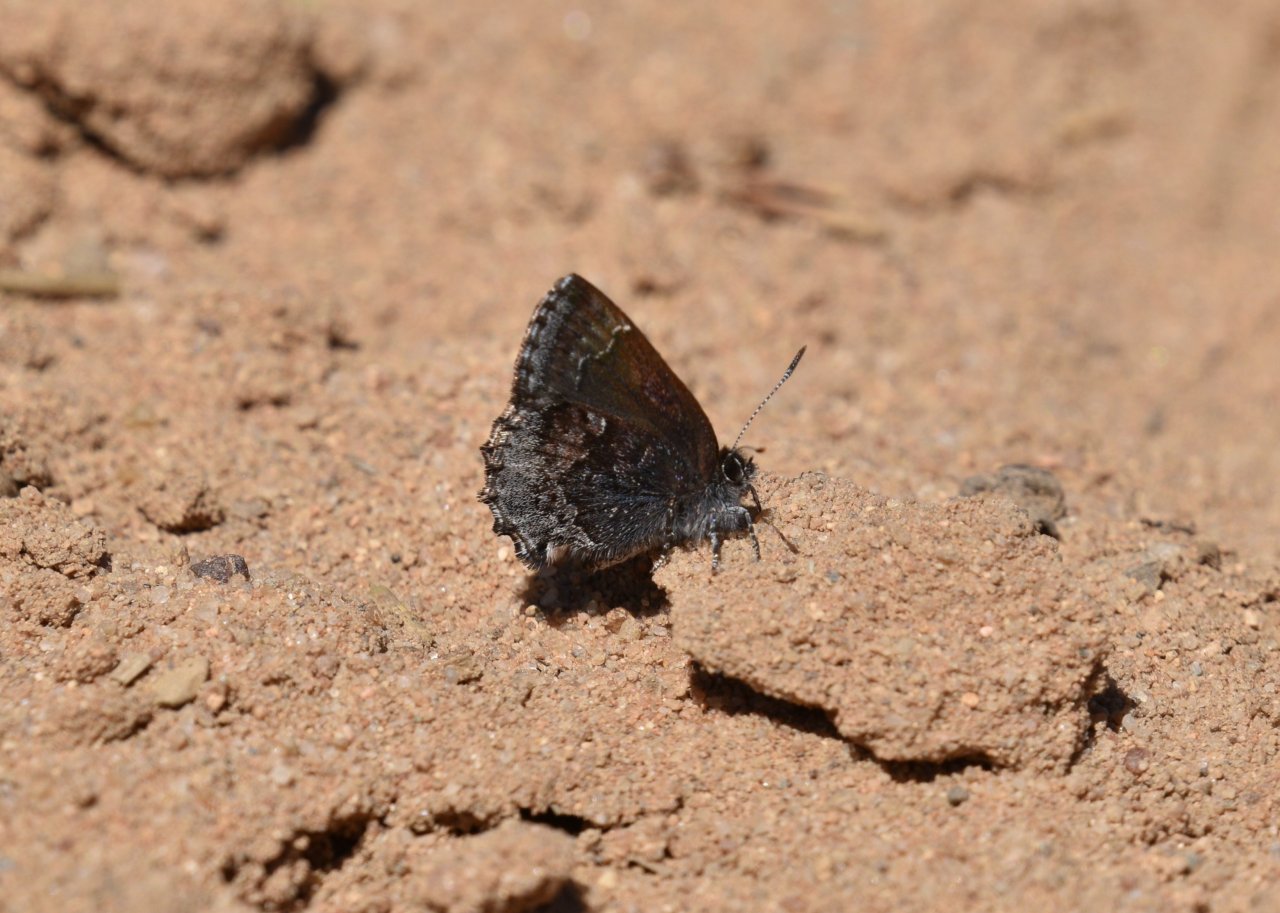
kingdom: Animalia
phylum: Arthropoda
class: Insecta
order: Lepidoptera
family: Lycaenidae
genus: Callophrys
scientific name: Callophrys polios
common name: Hoary Elfin
